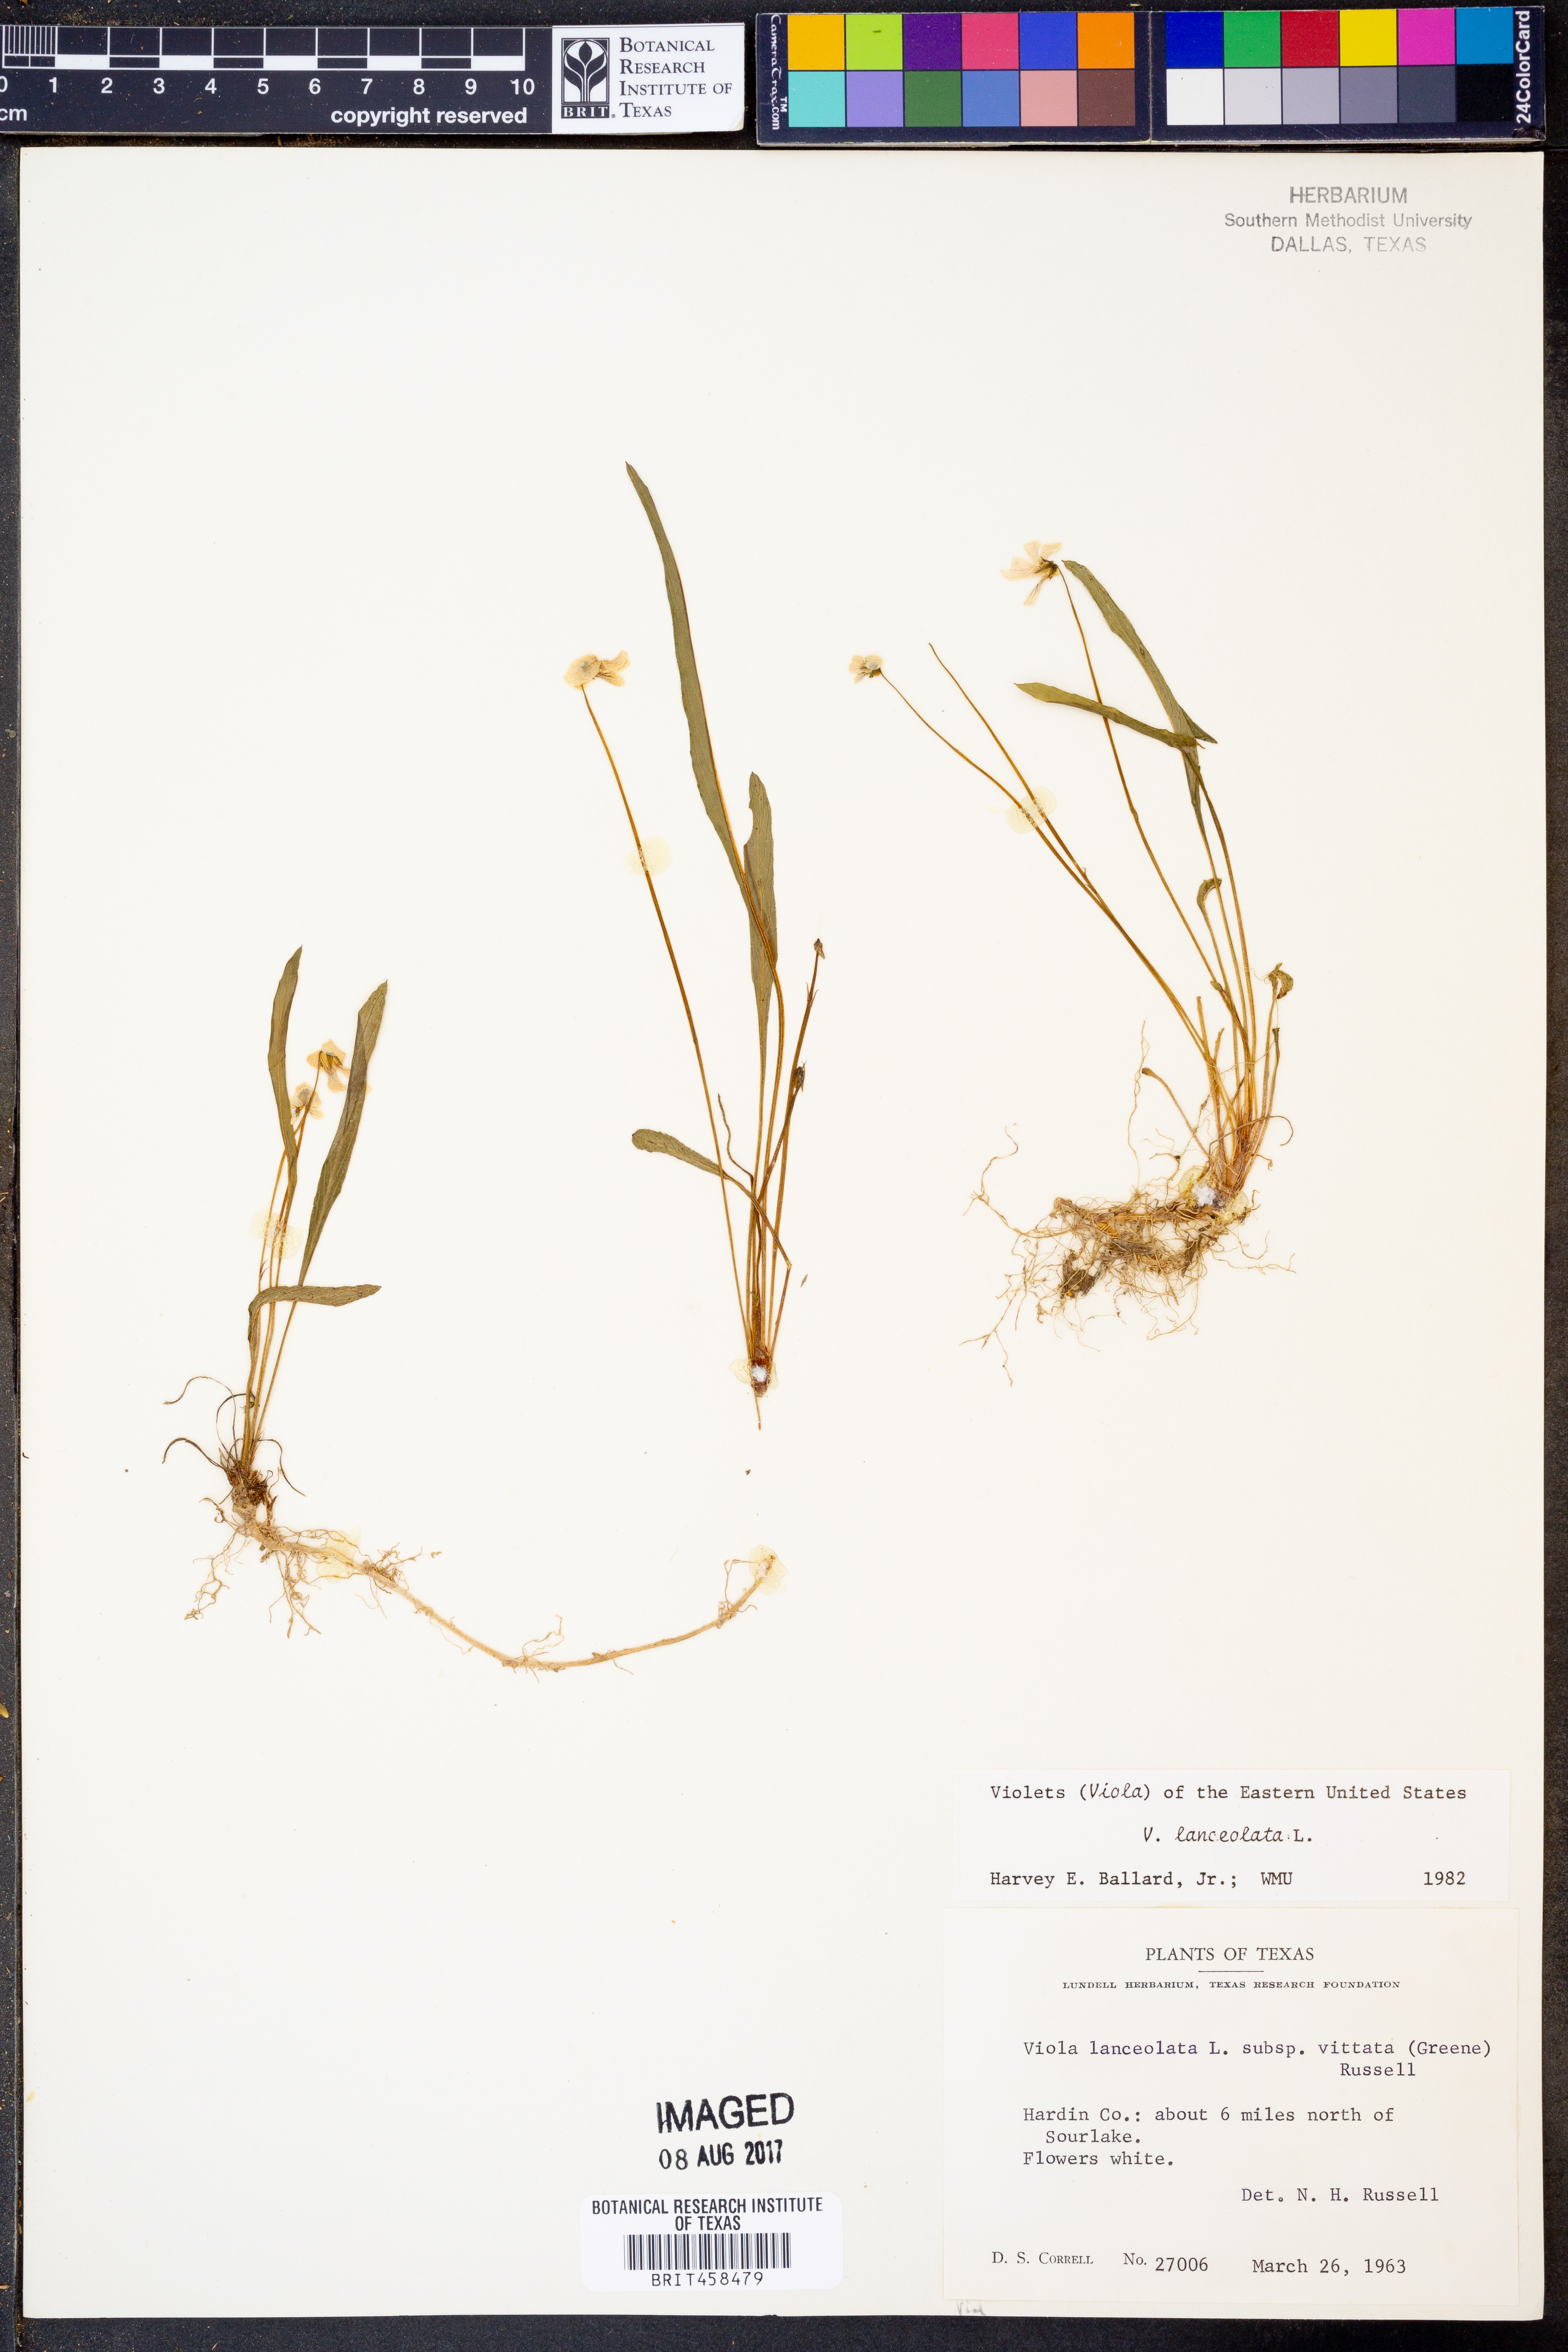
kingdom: Plantae
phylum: Tracheophyta
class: Magnoliopsida
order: Malpighiales
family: Violaceae
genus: Viola
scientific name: Viola lanceolata
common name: Bog white violet
